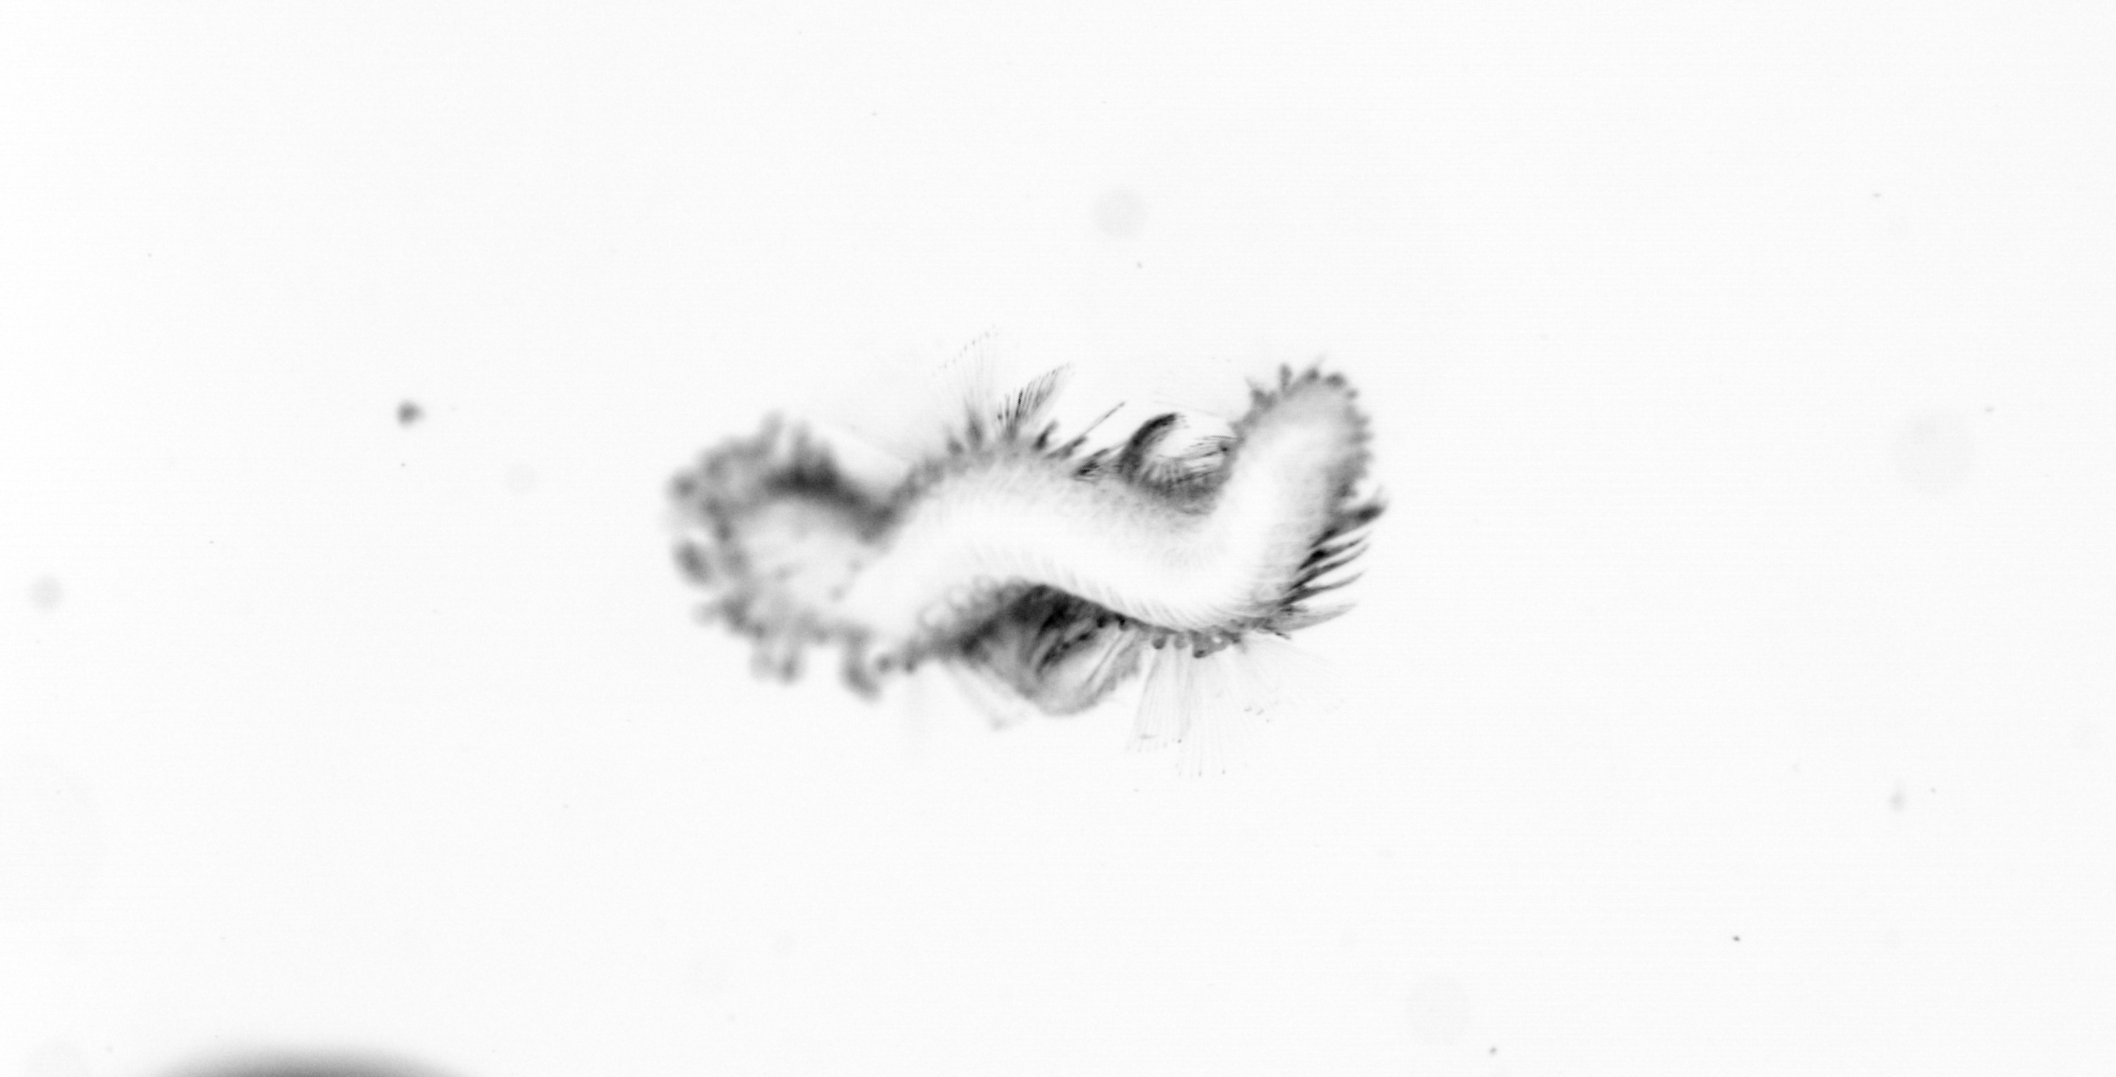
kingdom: Animalia
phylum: Annelida
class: Polychaeta
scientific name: Polychaeta
